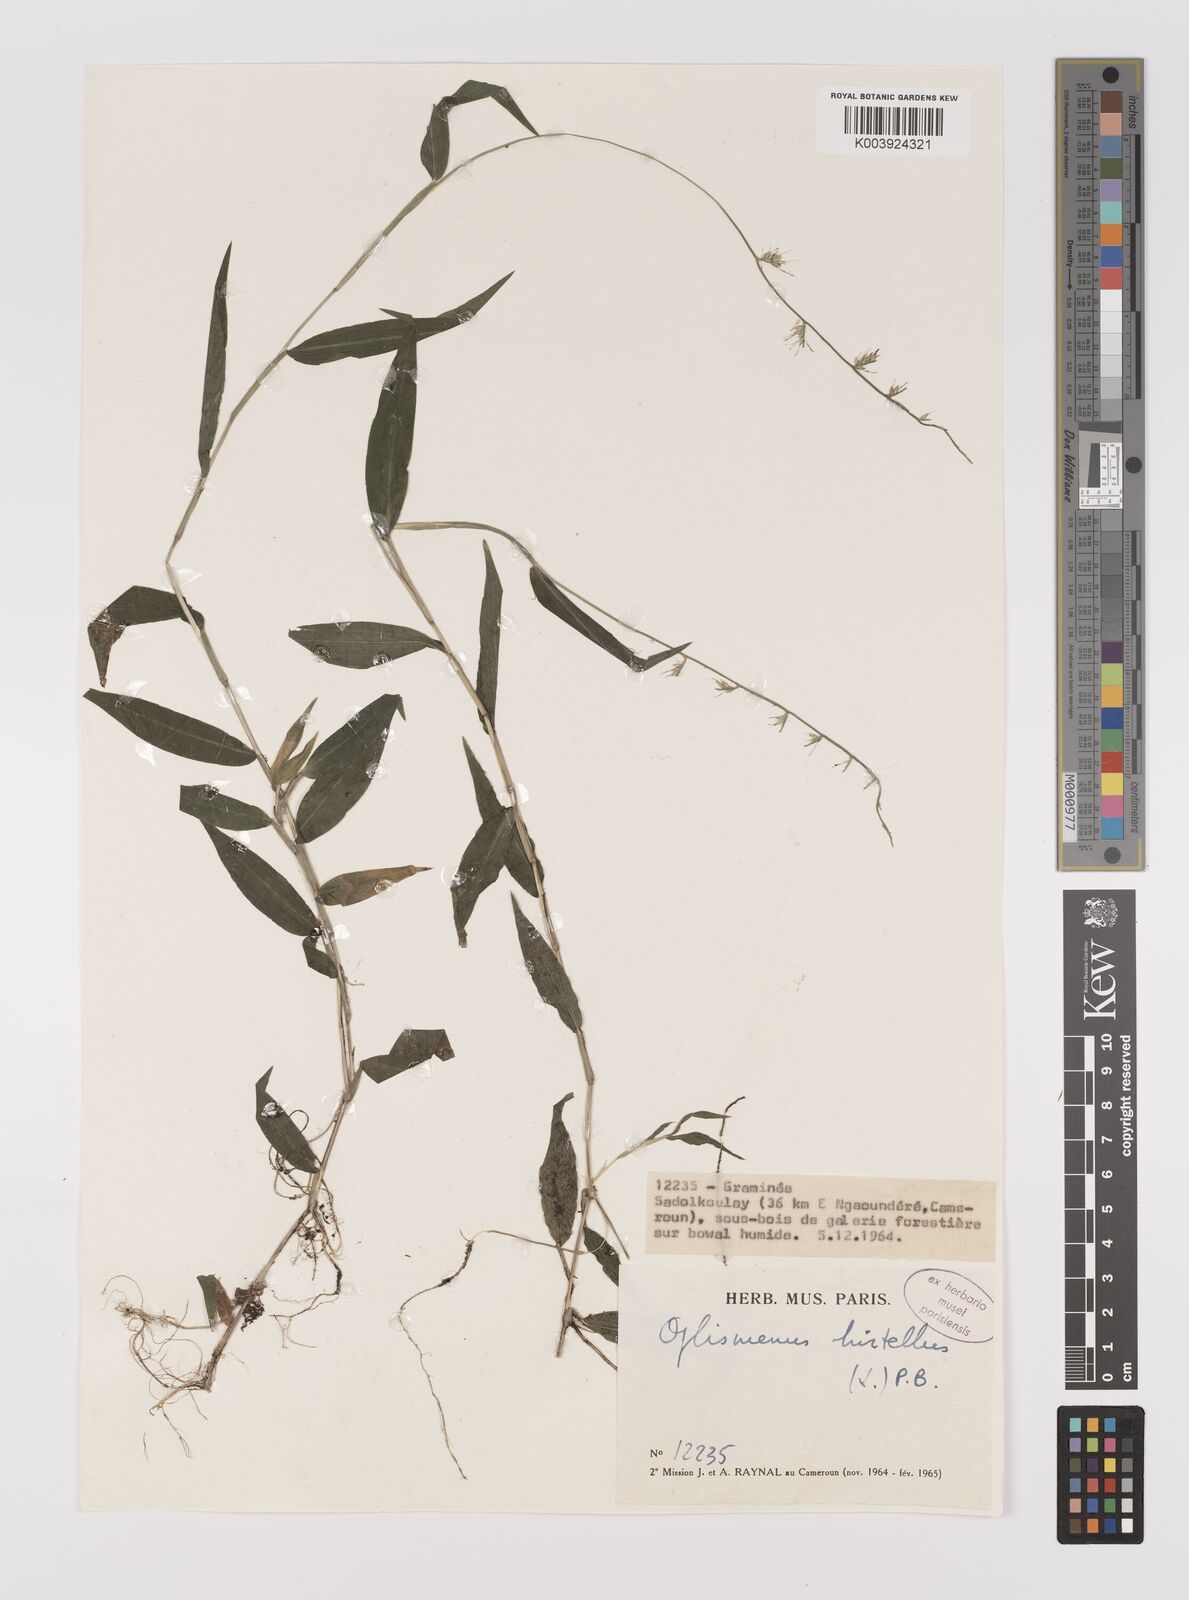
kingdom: Plantae
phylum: Tracheophyta
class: Liliopsida
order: Poales
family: Poaceae
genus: Oplismenus
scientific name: Oplismenus hirtellus
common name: Basketgrass
